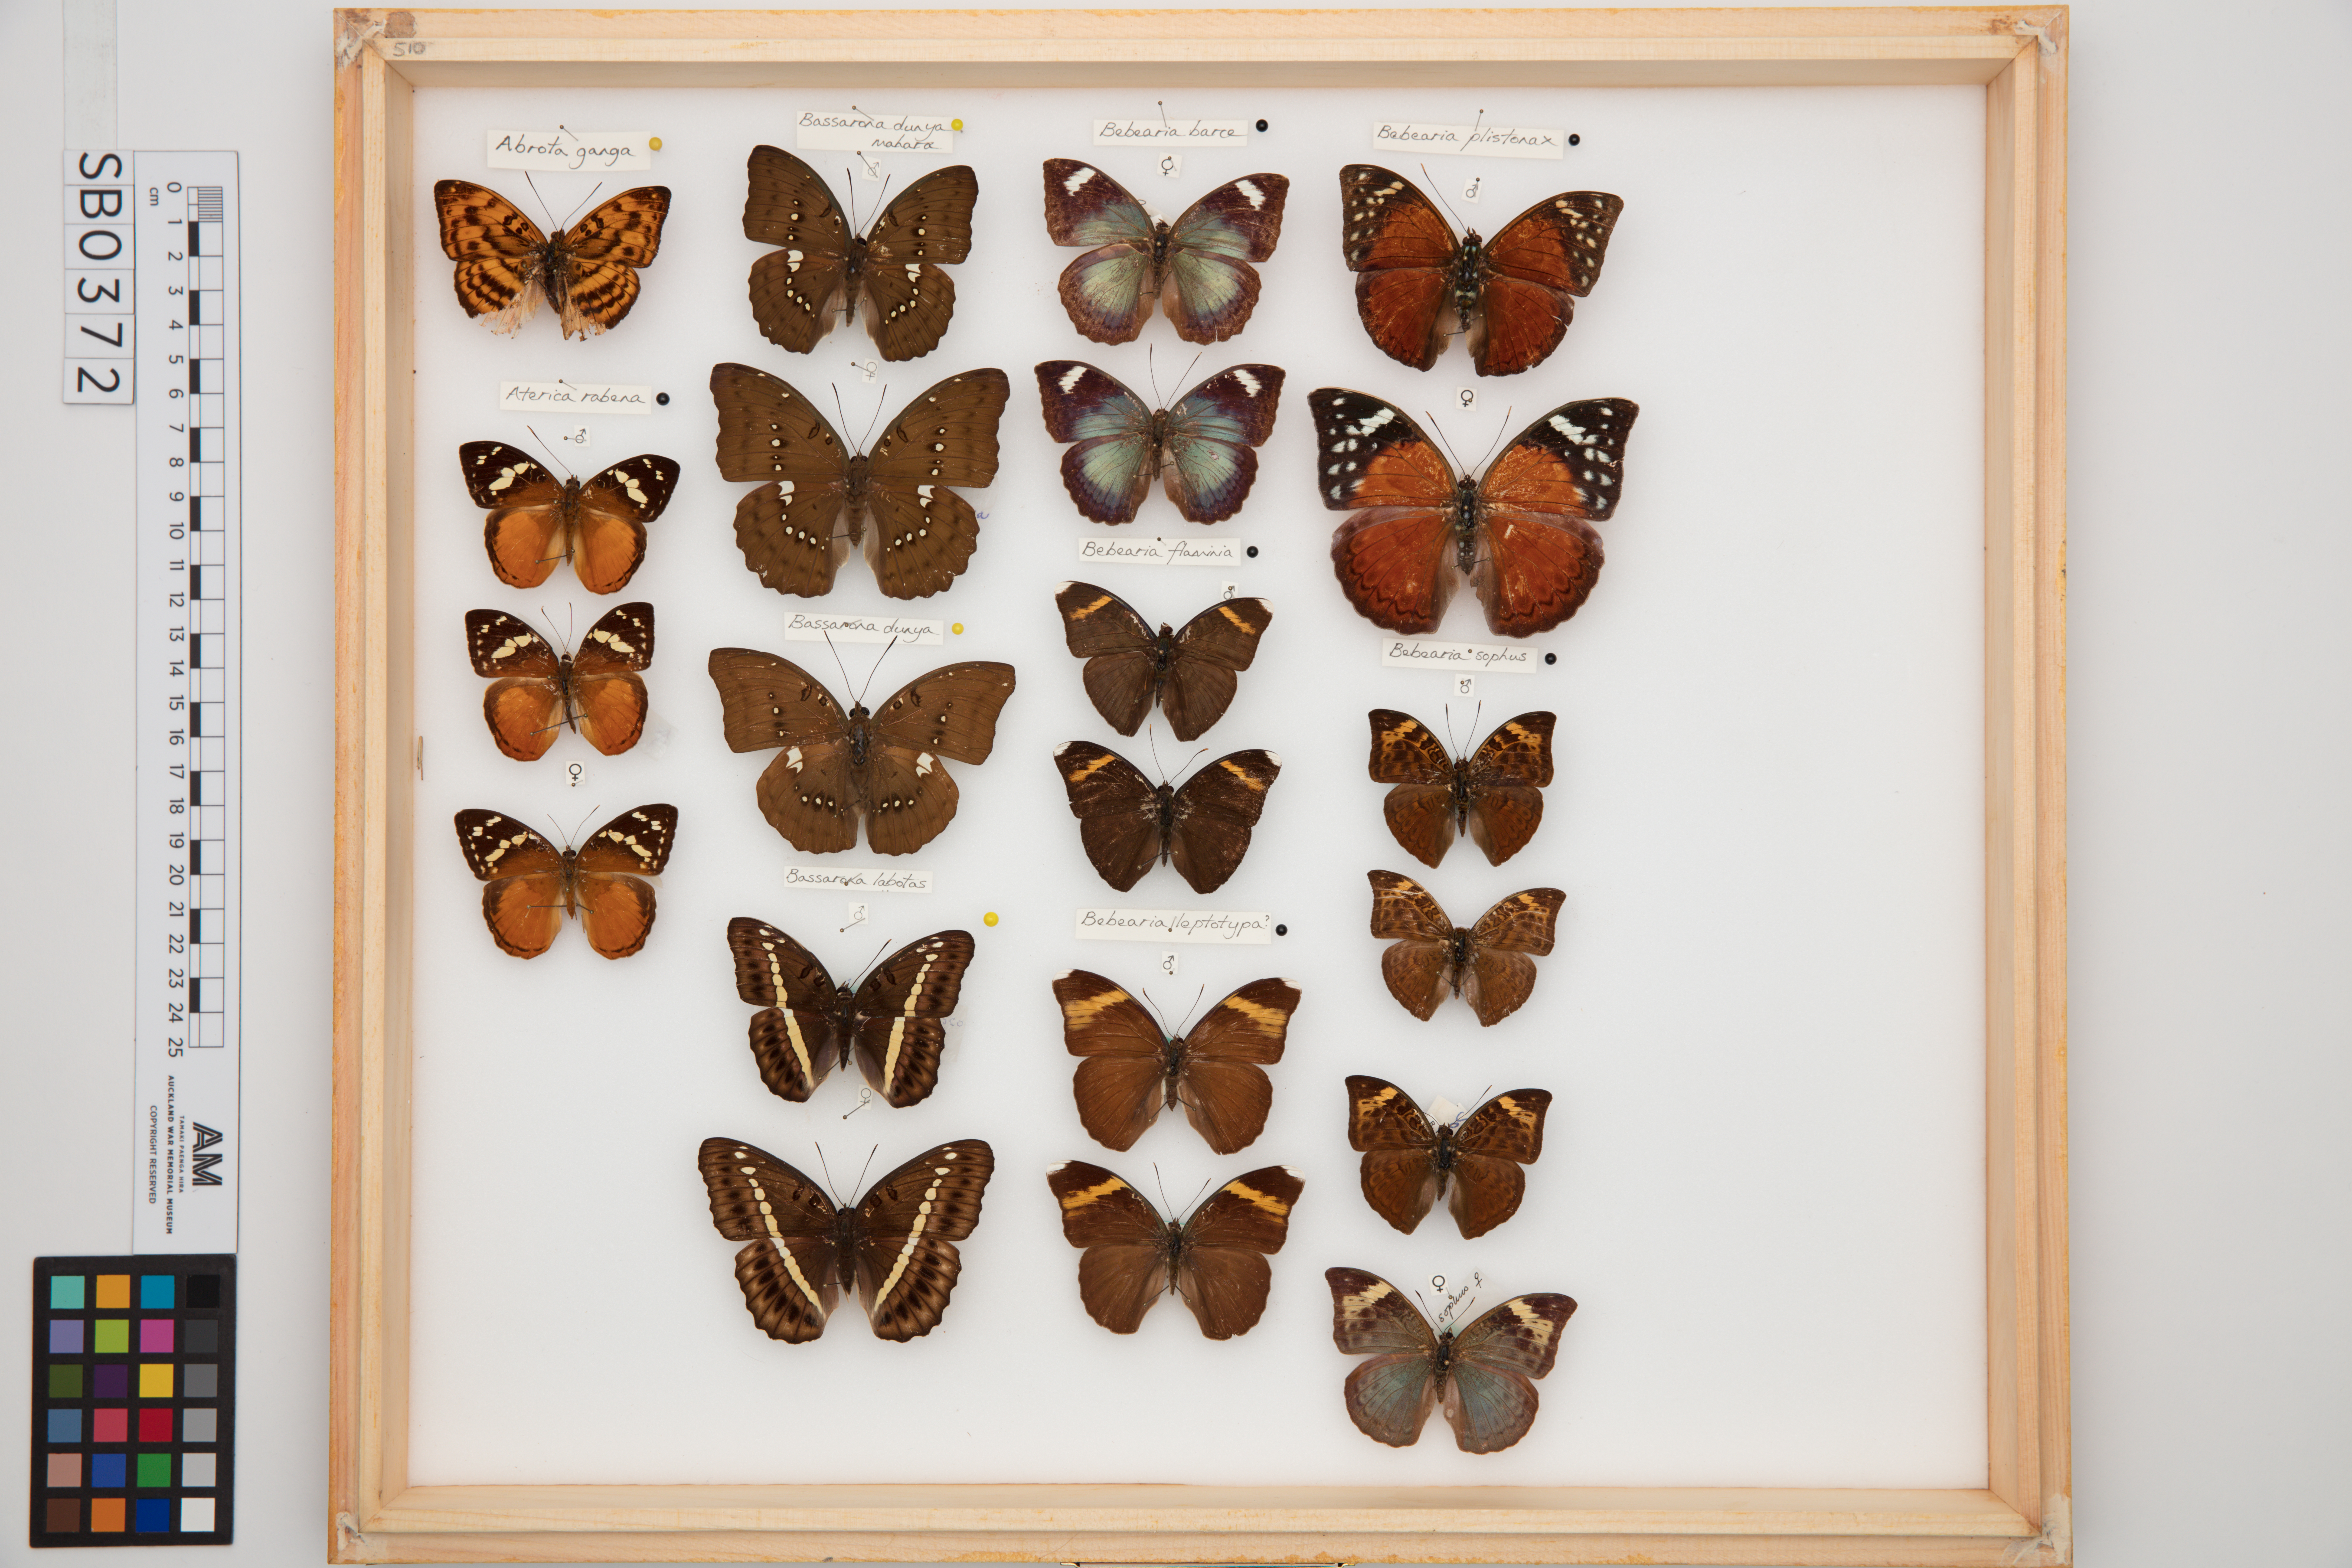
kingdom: Animalia
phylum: Arthropoda
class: Insecta
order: Lepidoptera
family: Nymphalidae
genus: Bebearia
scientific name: Bebearia flaminia
